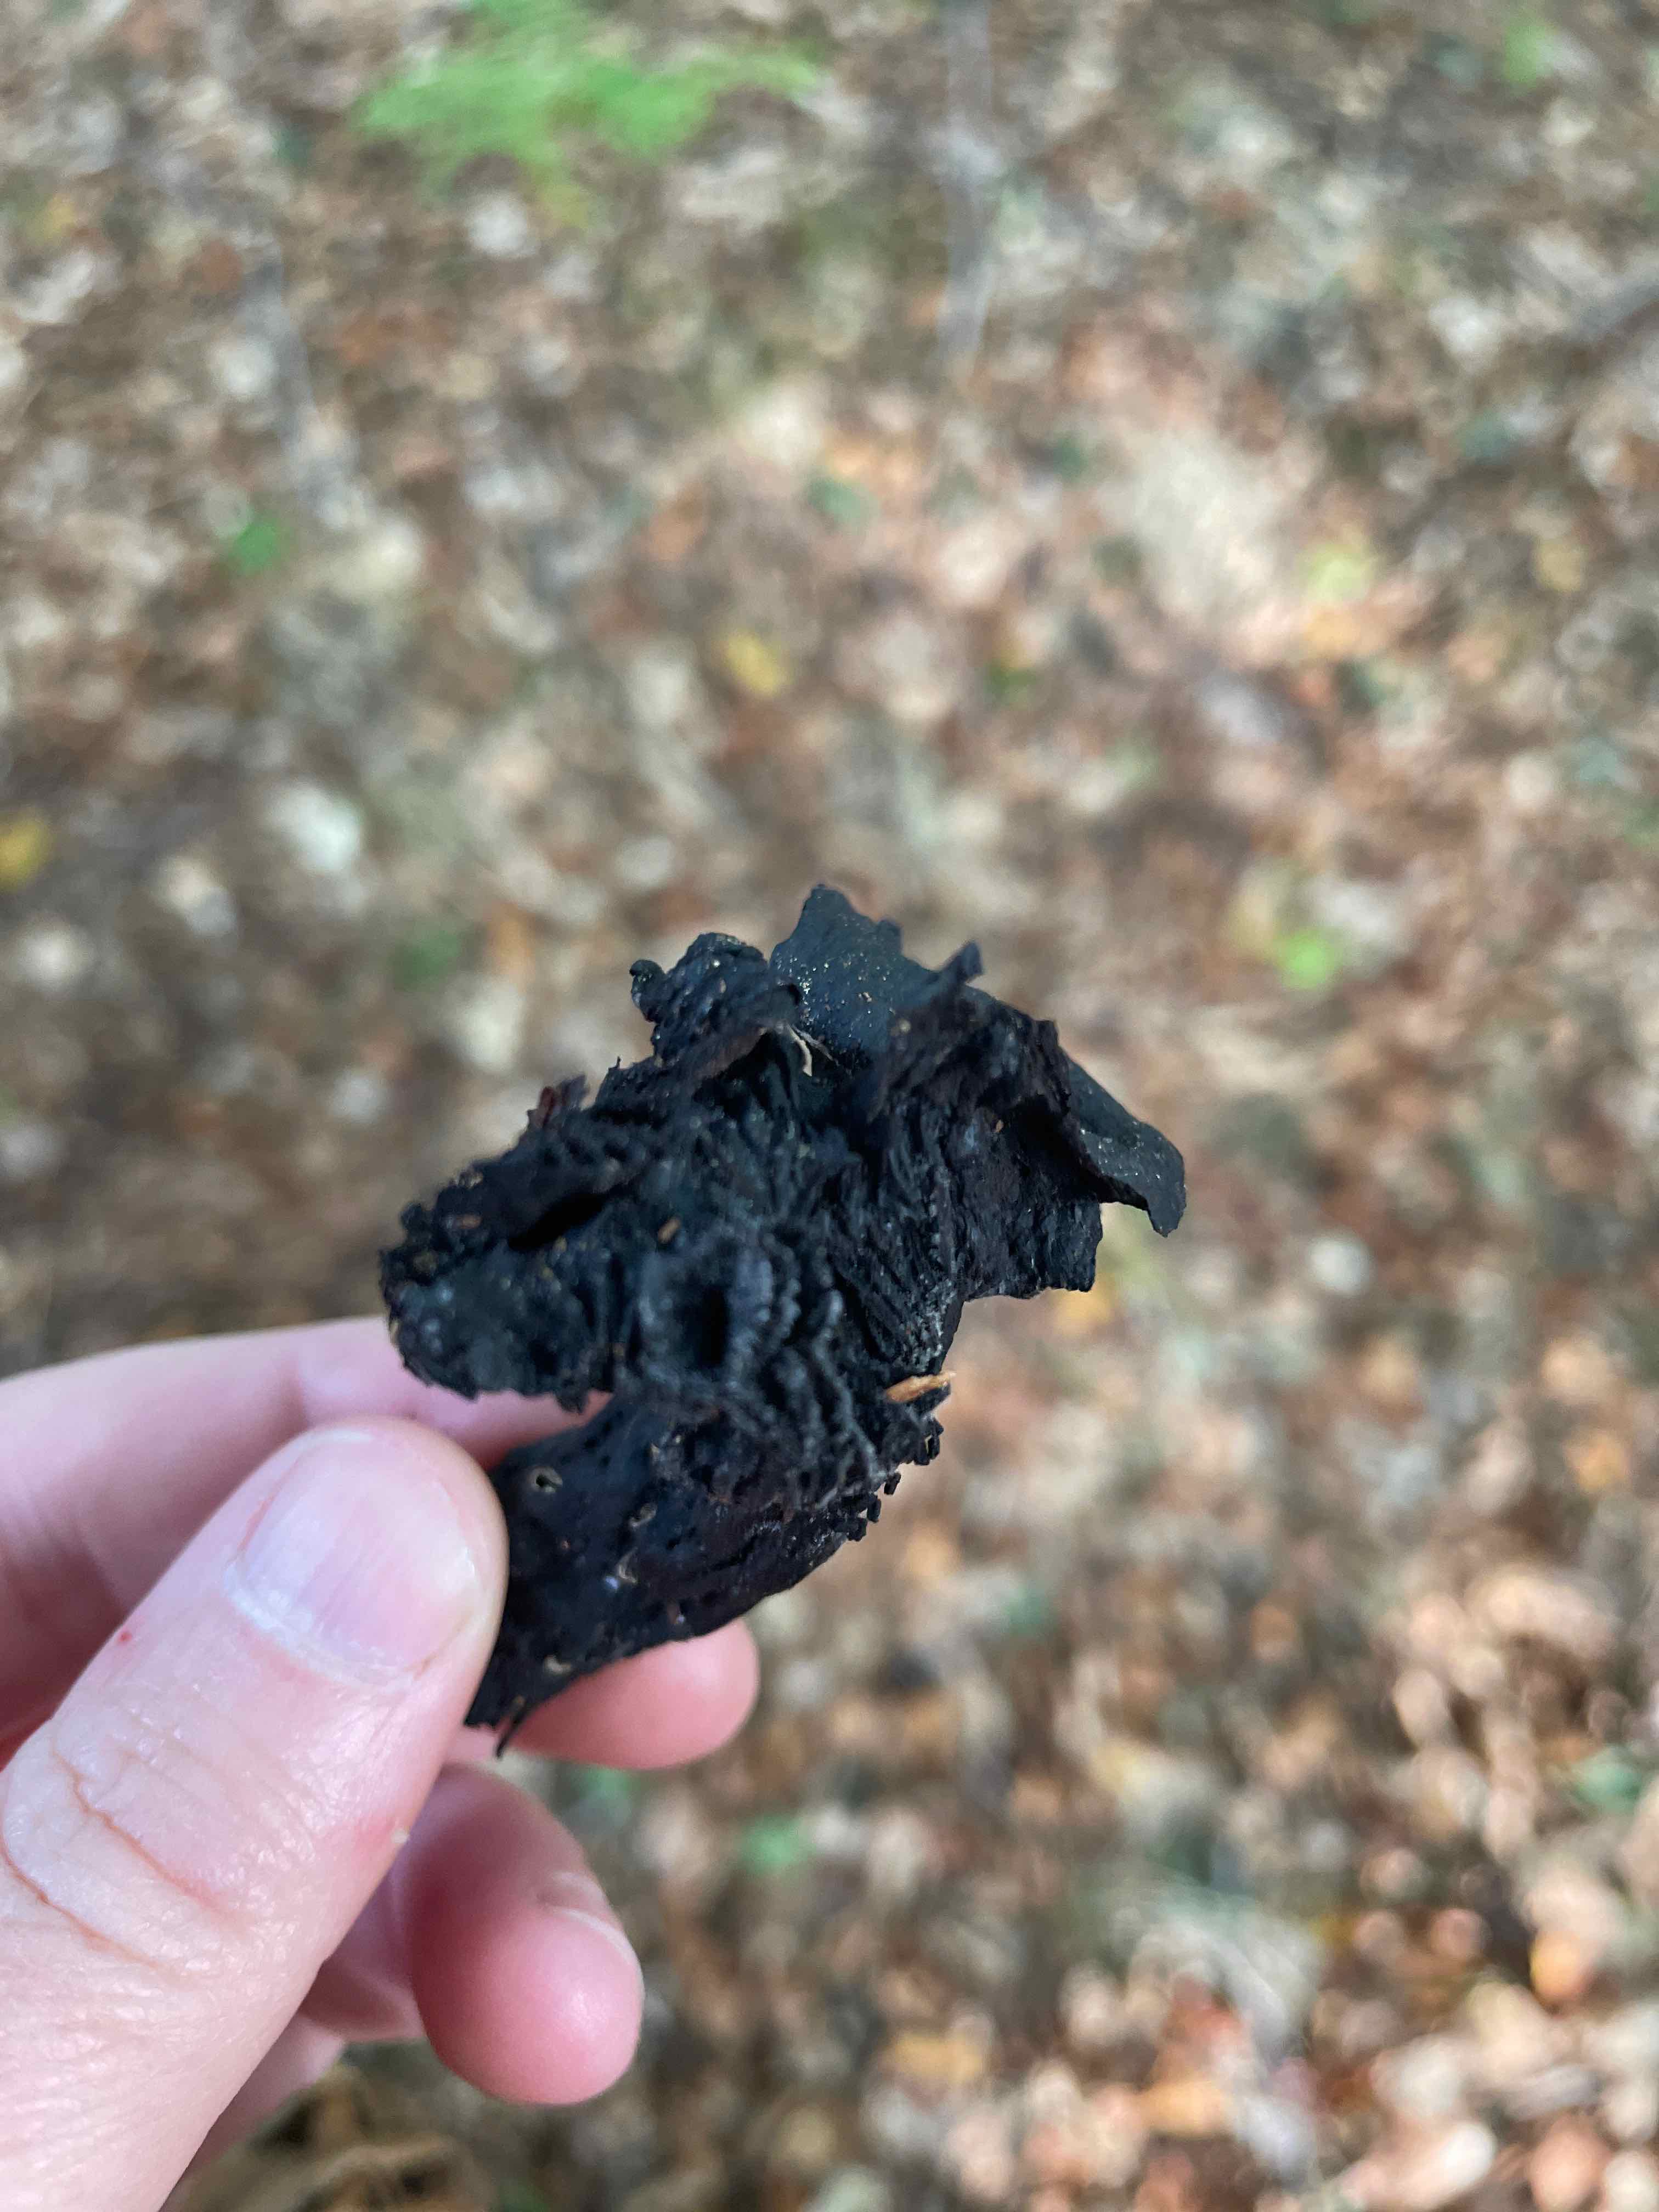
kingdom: Fungi
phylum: Basidiomycota
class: Agaricomycetes
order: Russulales
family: Russulaceae
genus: Russula
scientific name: Russula
